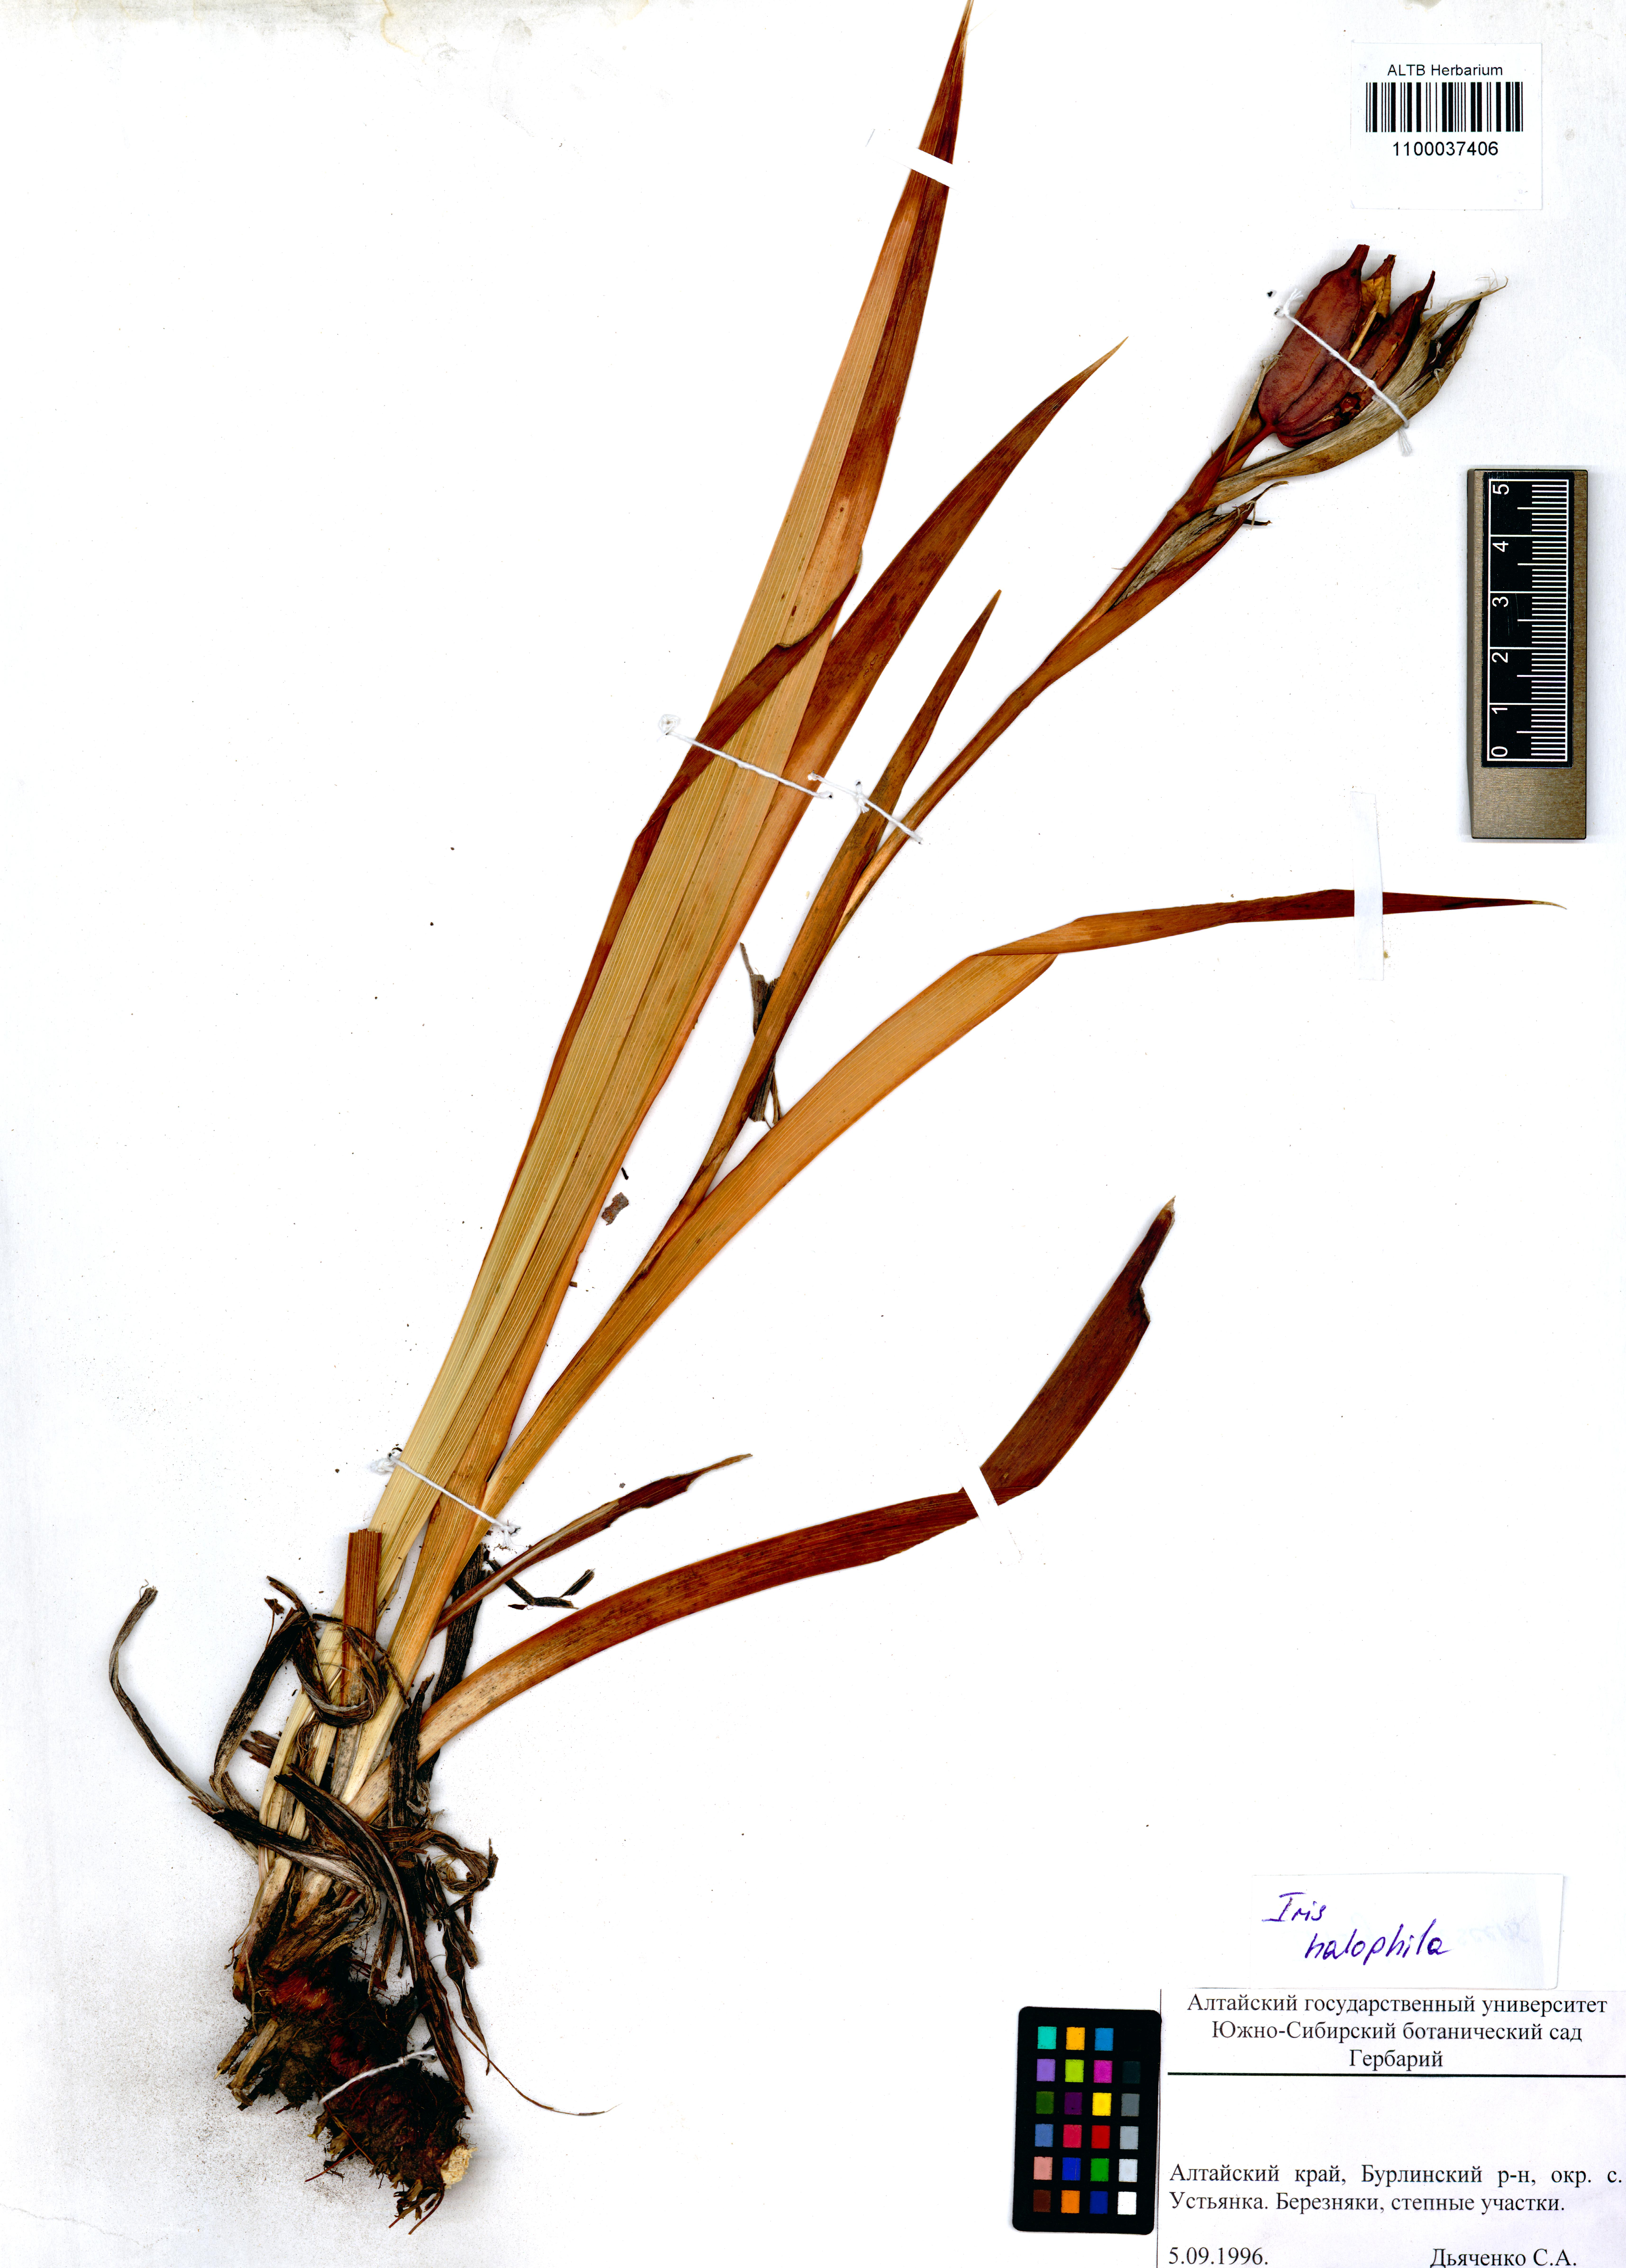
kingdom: Plantae
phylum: Tracheophyta
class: Liliopsida
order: Asparagales
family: Iridaceae
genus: Iris
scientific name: Iris halophila
